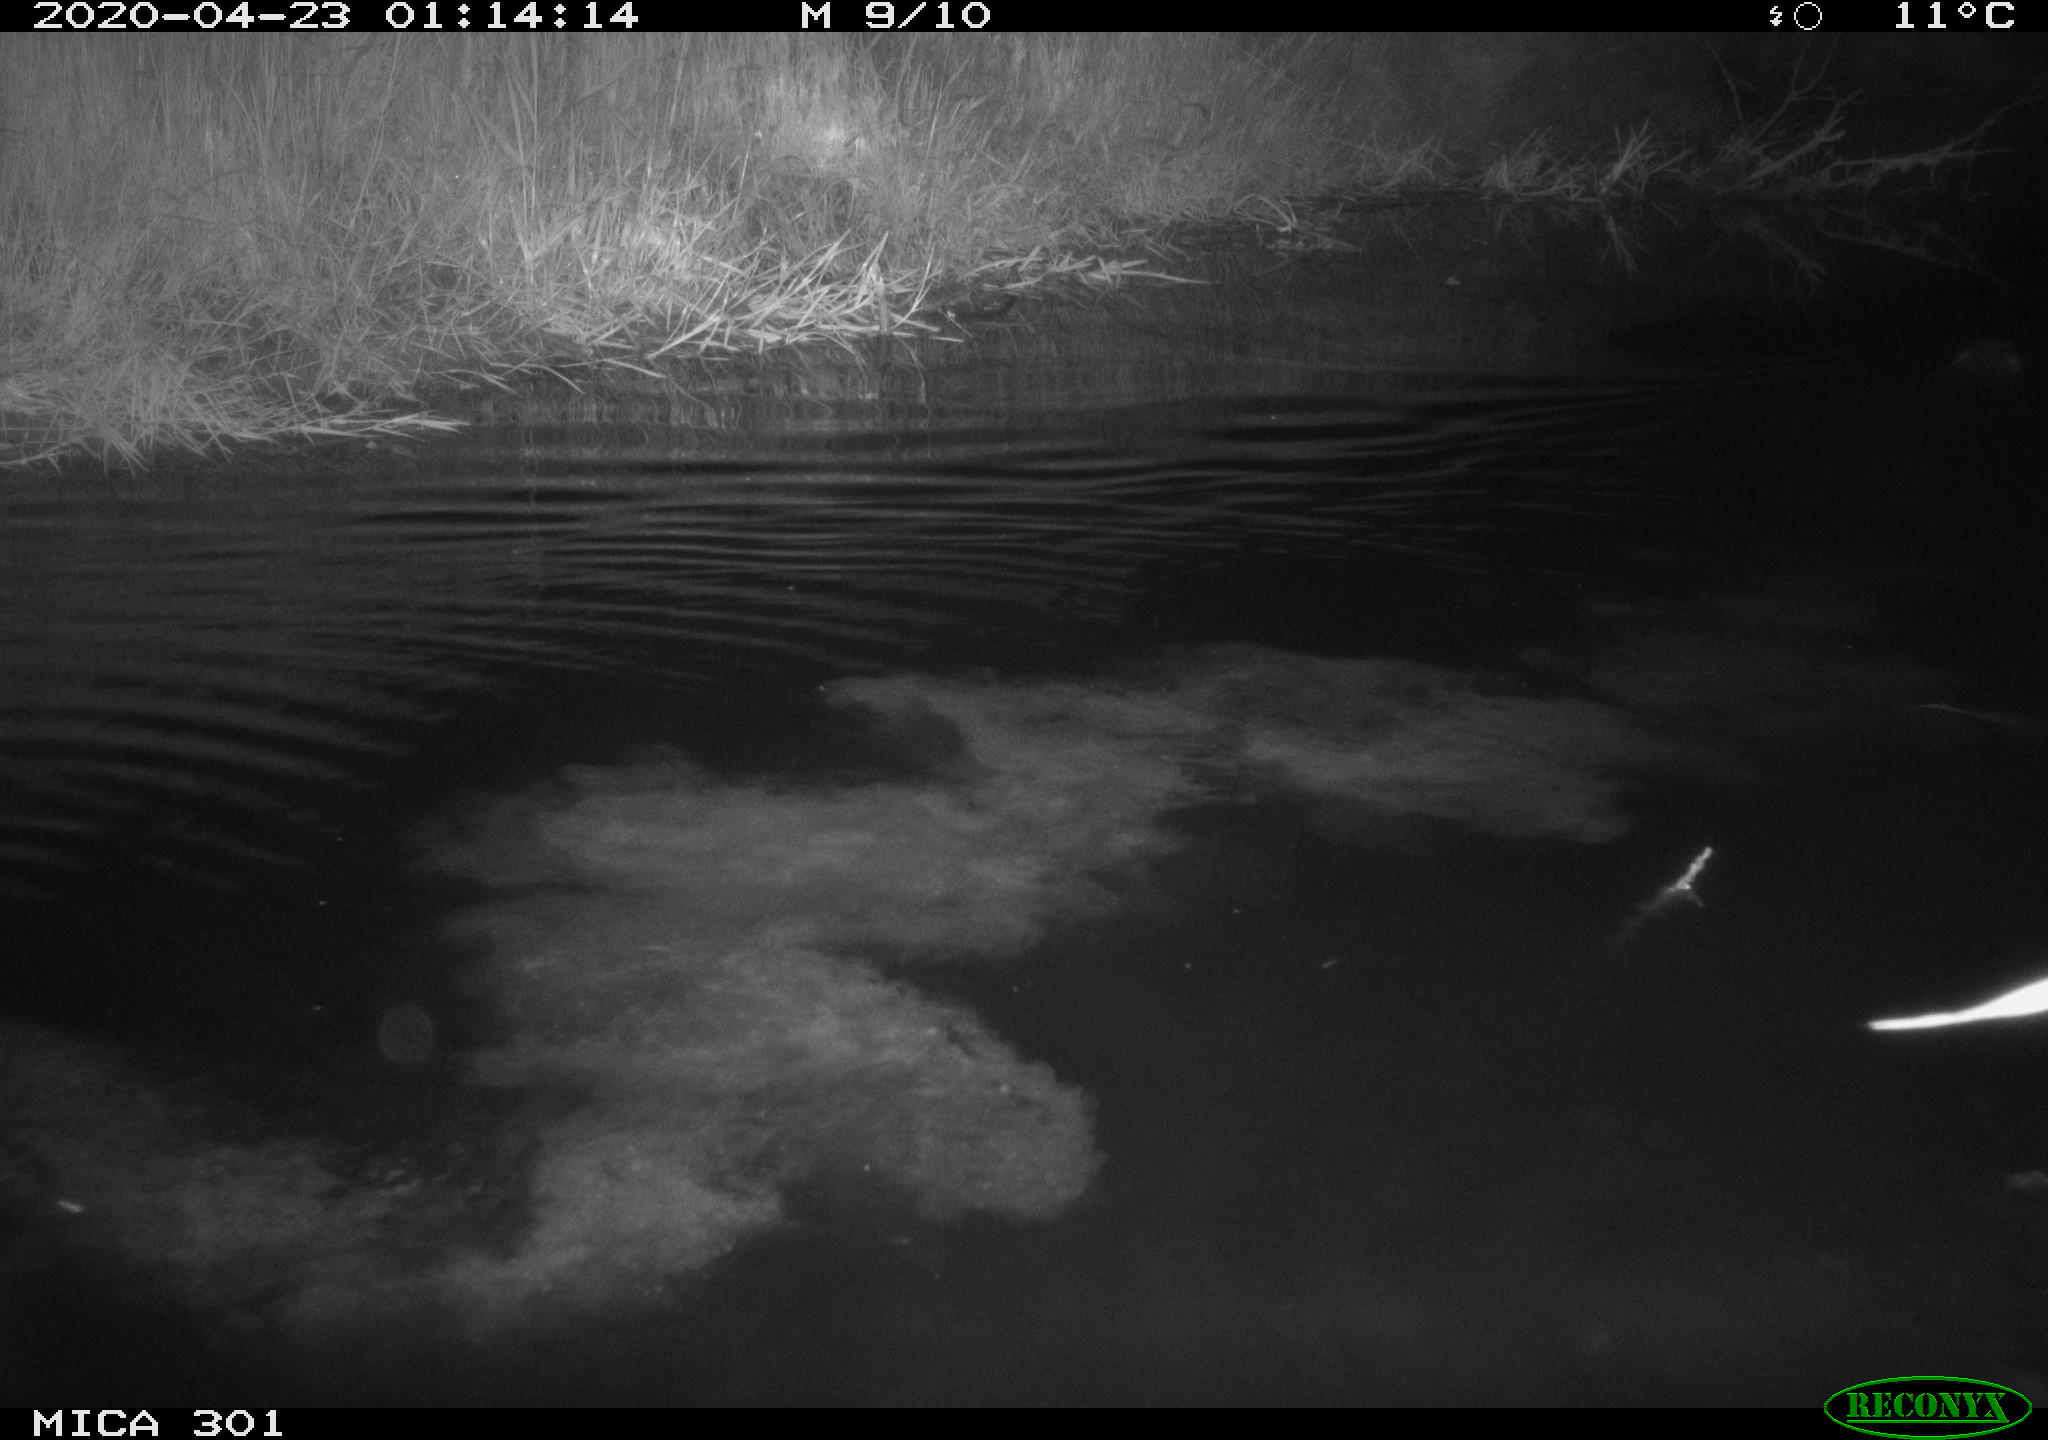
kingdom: Animalia
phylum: Chordata
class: Mammalia
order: Rodentia
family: Castoridae
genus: Castor
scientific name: Castor fiber
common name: Eurasian beaver
